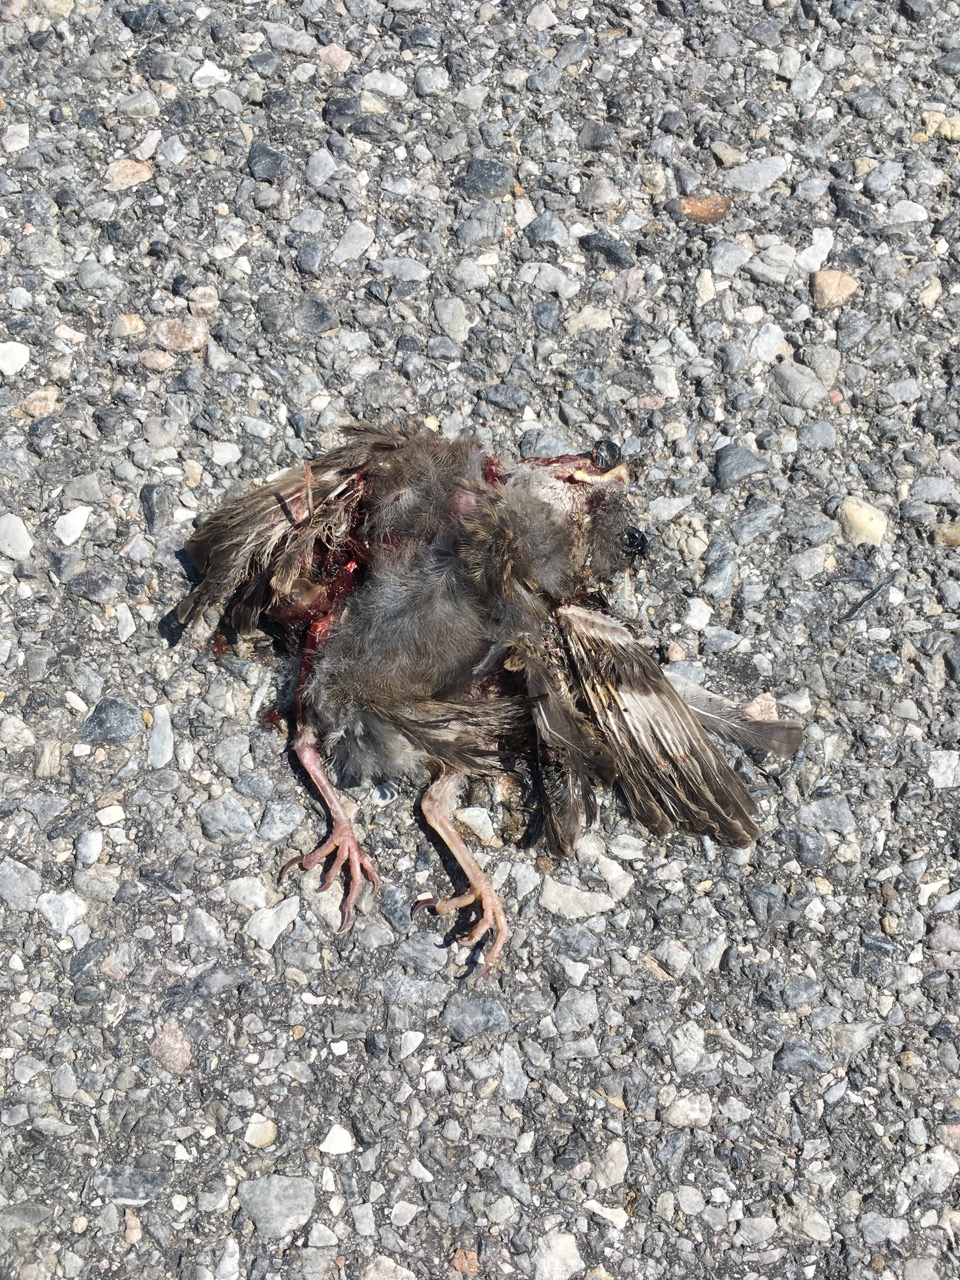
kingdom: Animalia
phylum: Chordata
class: Aves
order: Passeriformes
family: Passeridae
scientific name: Passeridae
